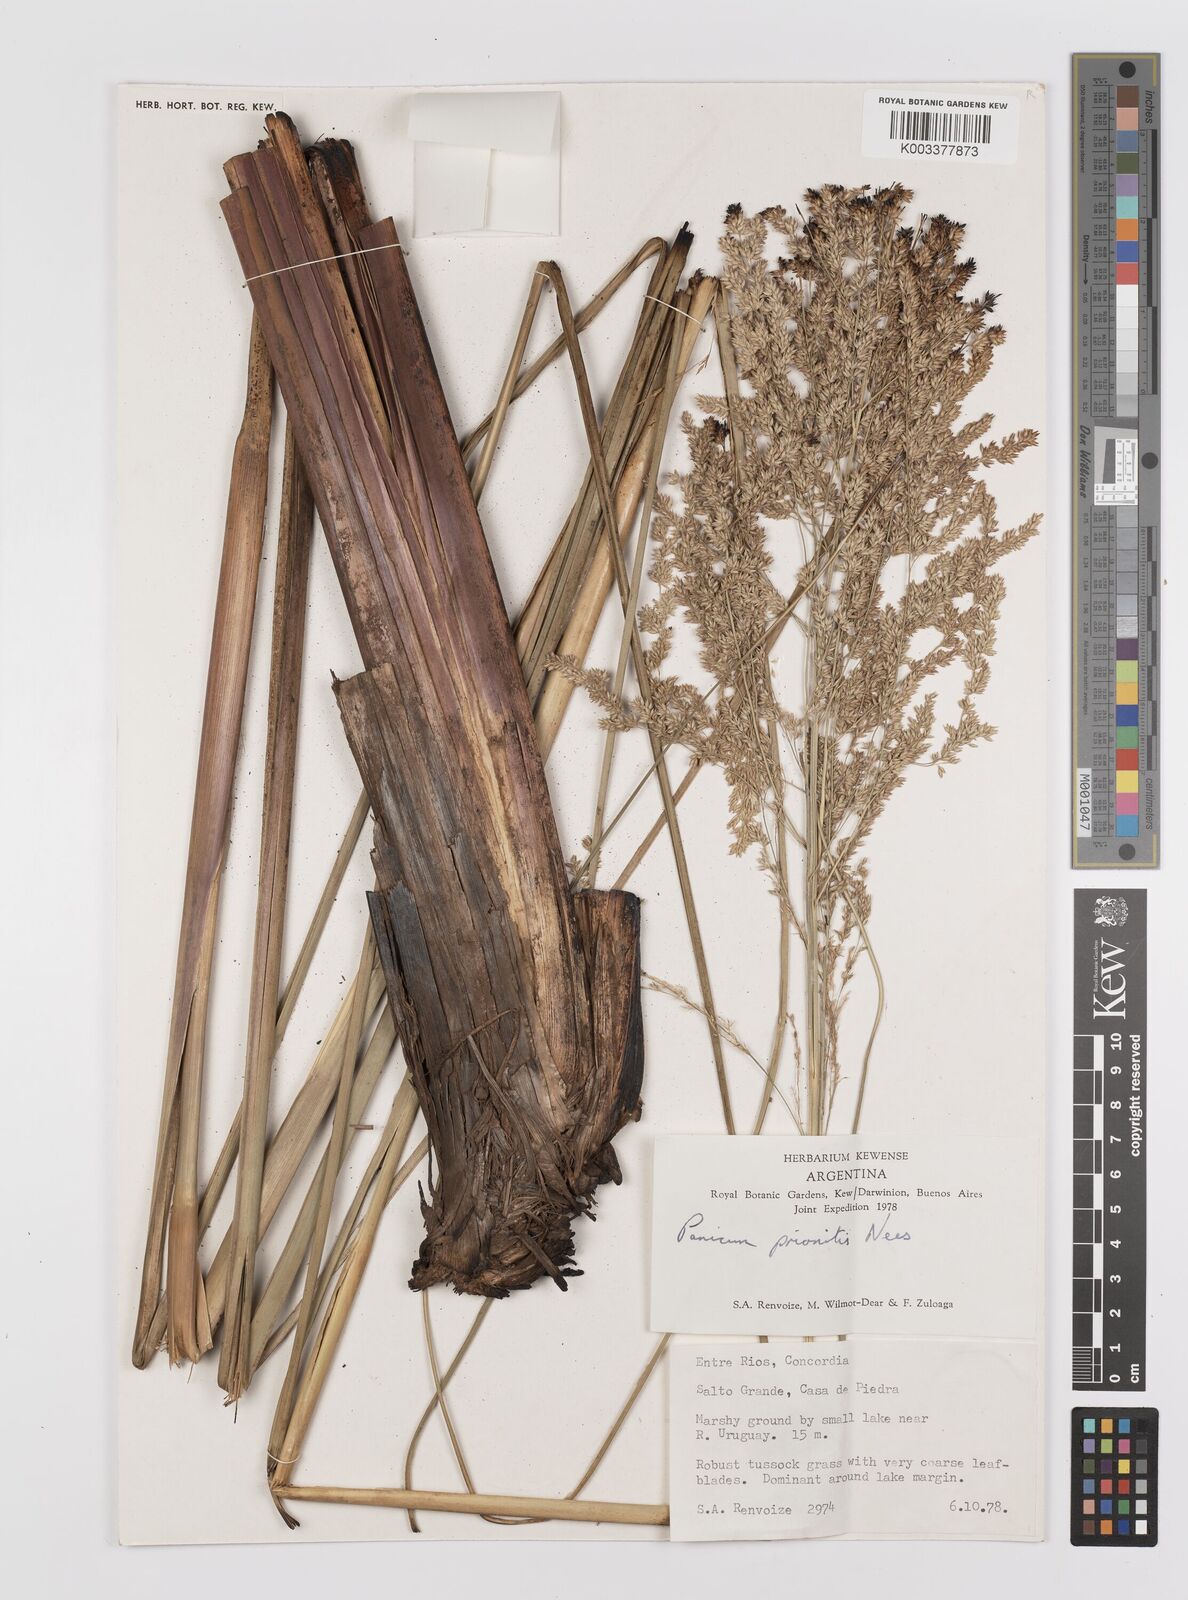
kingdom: Plantae
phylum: Tracheophyta
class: Liliopsida
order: Poales
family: Poaceae
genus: Coleataenia
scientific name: Coleataenia prionitis
